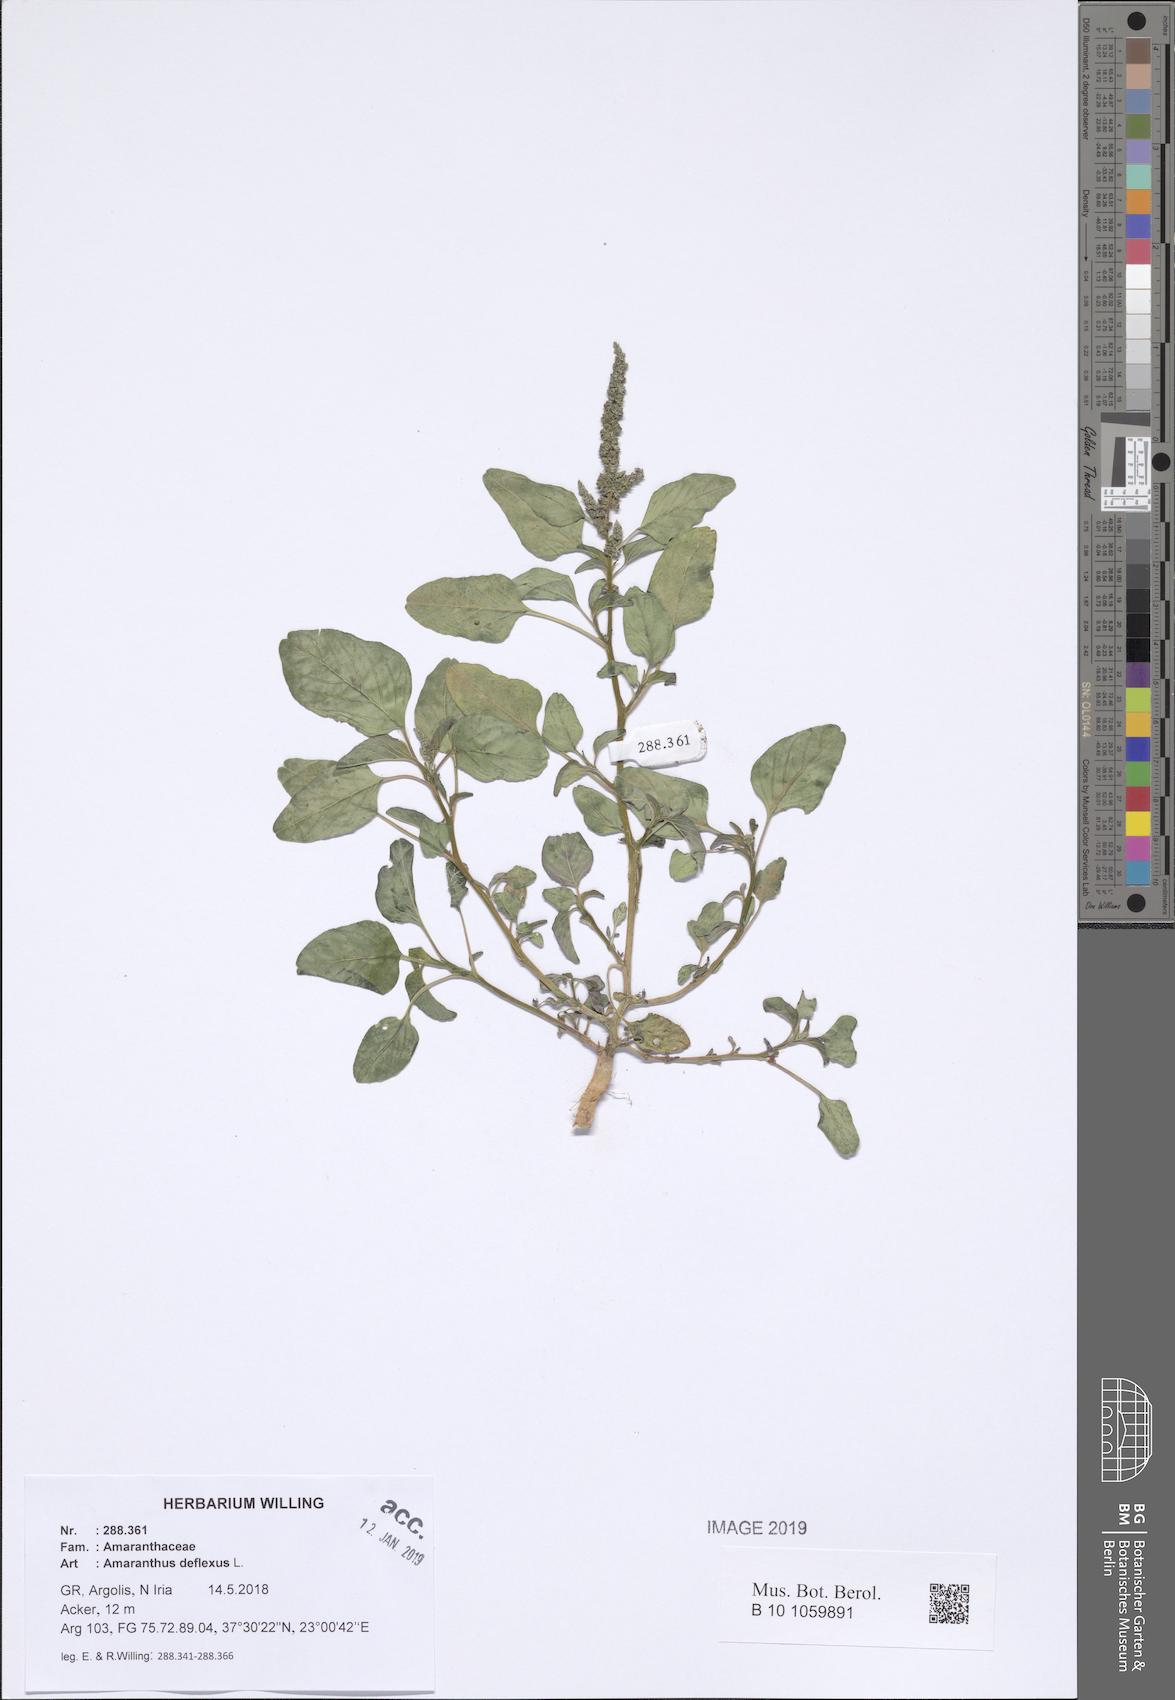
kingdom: Plantae
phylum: Tracheophyta
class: Magnoliopsida
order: Caryophyllales
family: Amaranthaceae
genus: Amaranthus
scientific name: Amaranthus deflexus
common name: Perennial pigweed
